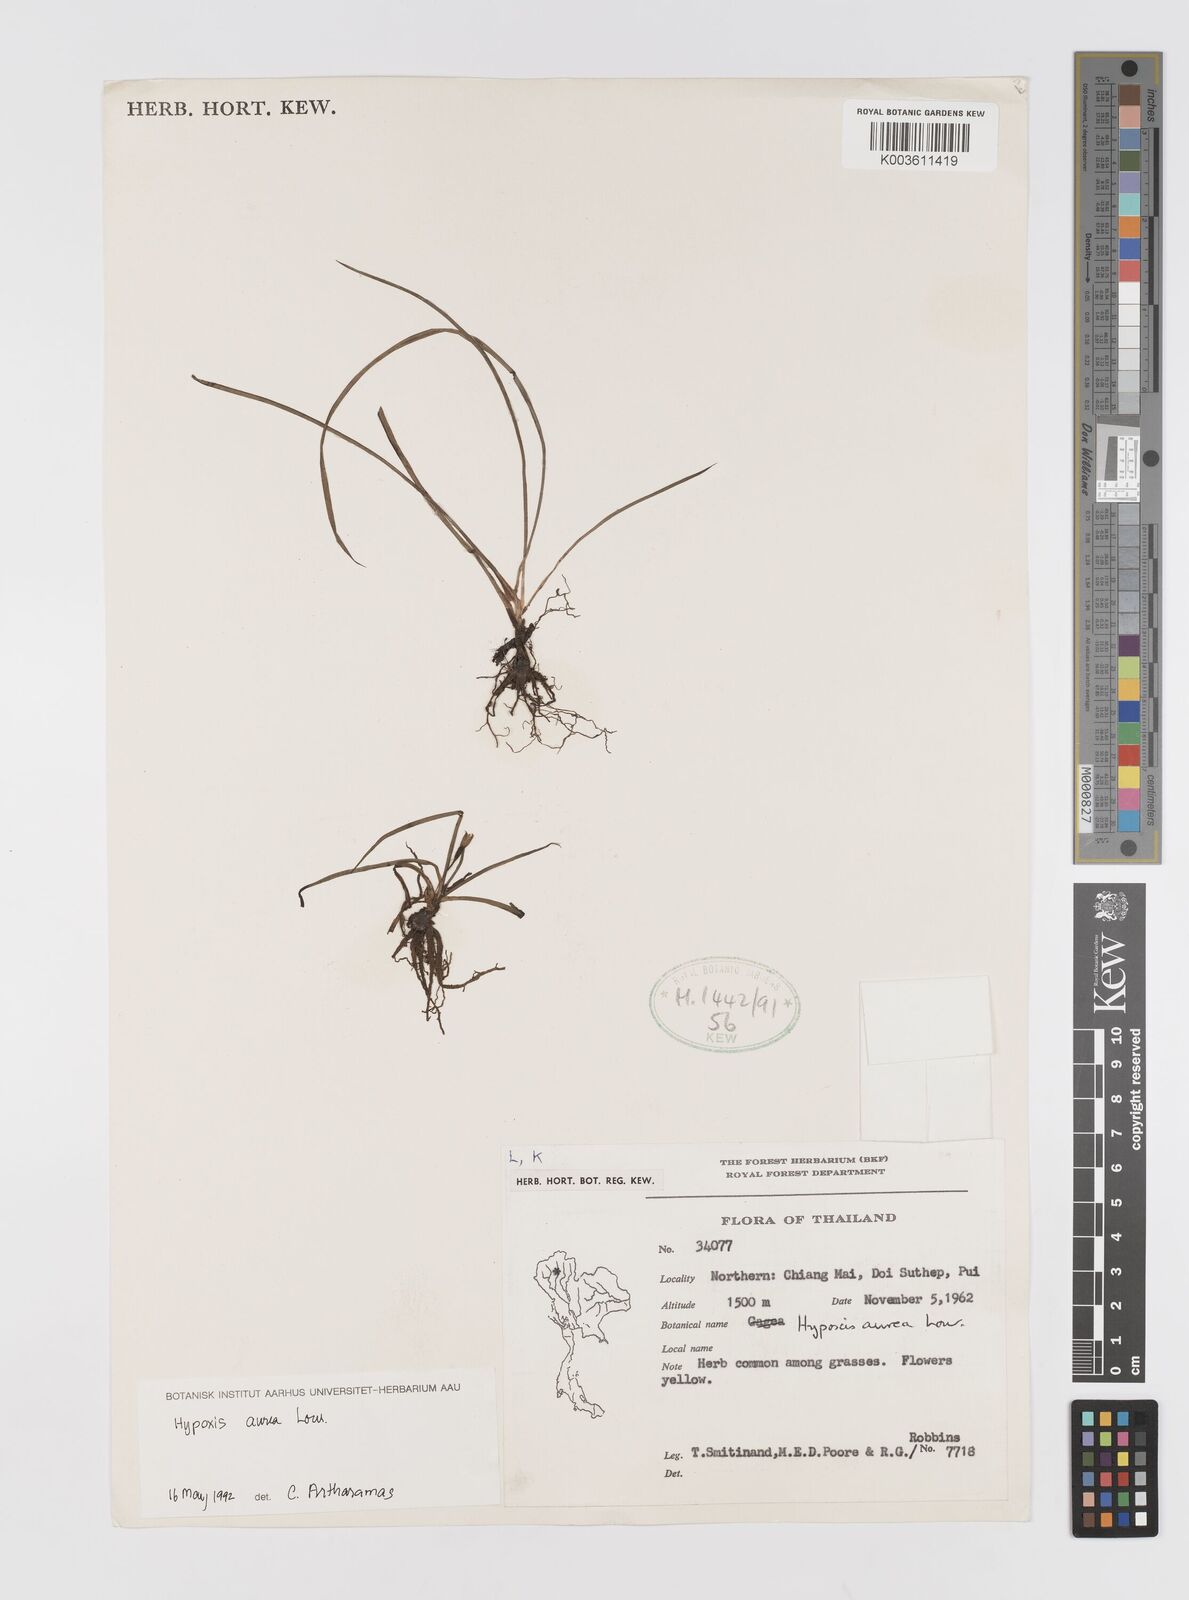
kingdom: Plantae
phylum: Tracheophyta
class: Liliopsida
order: Asparagales
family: Hypoxidaceae
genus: Hypoxis
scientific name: Hypoxis aurea
